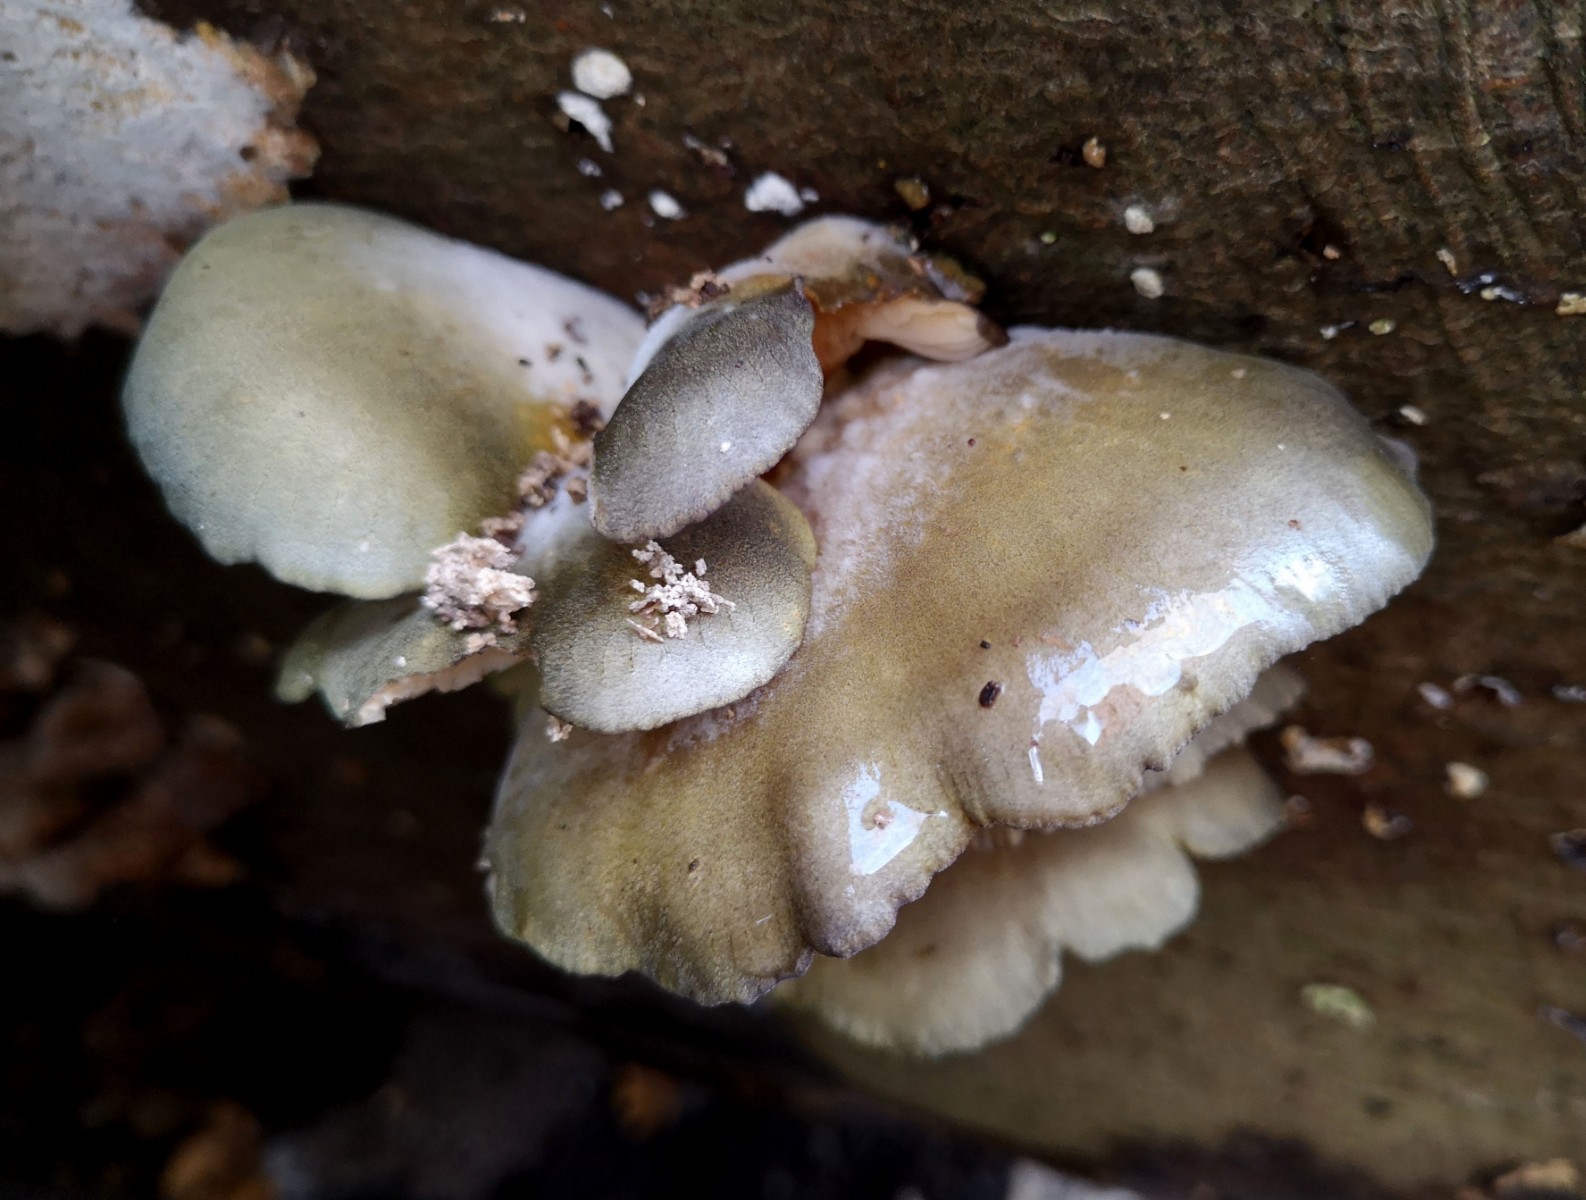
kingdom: Fungi
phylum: Basidiomycota
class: Agaricomycetes
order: Agaricales
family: Sarcomyxaceae
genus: Sarcomyxa
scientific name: Sarcomyxa serotina
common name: gummihat
